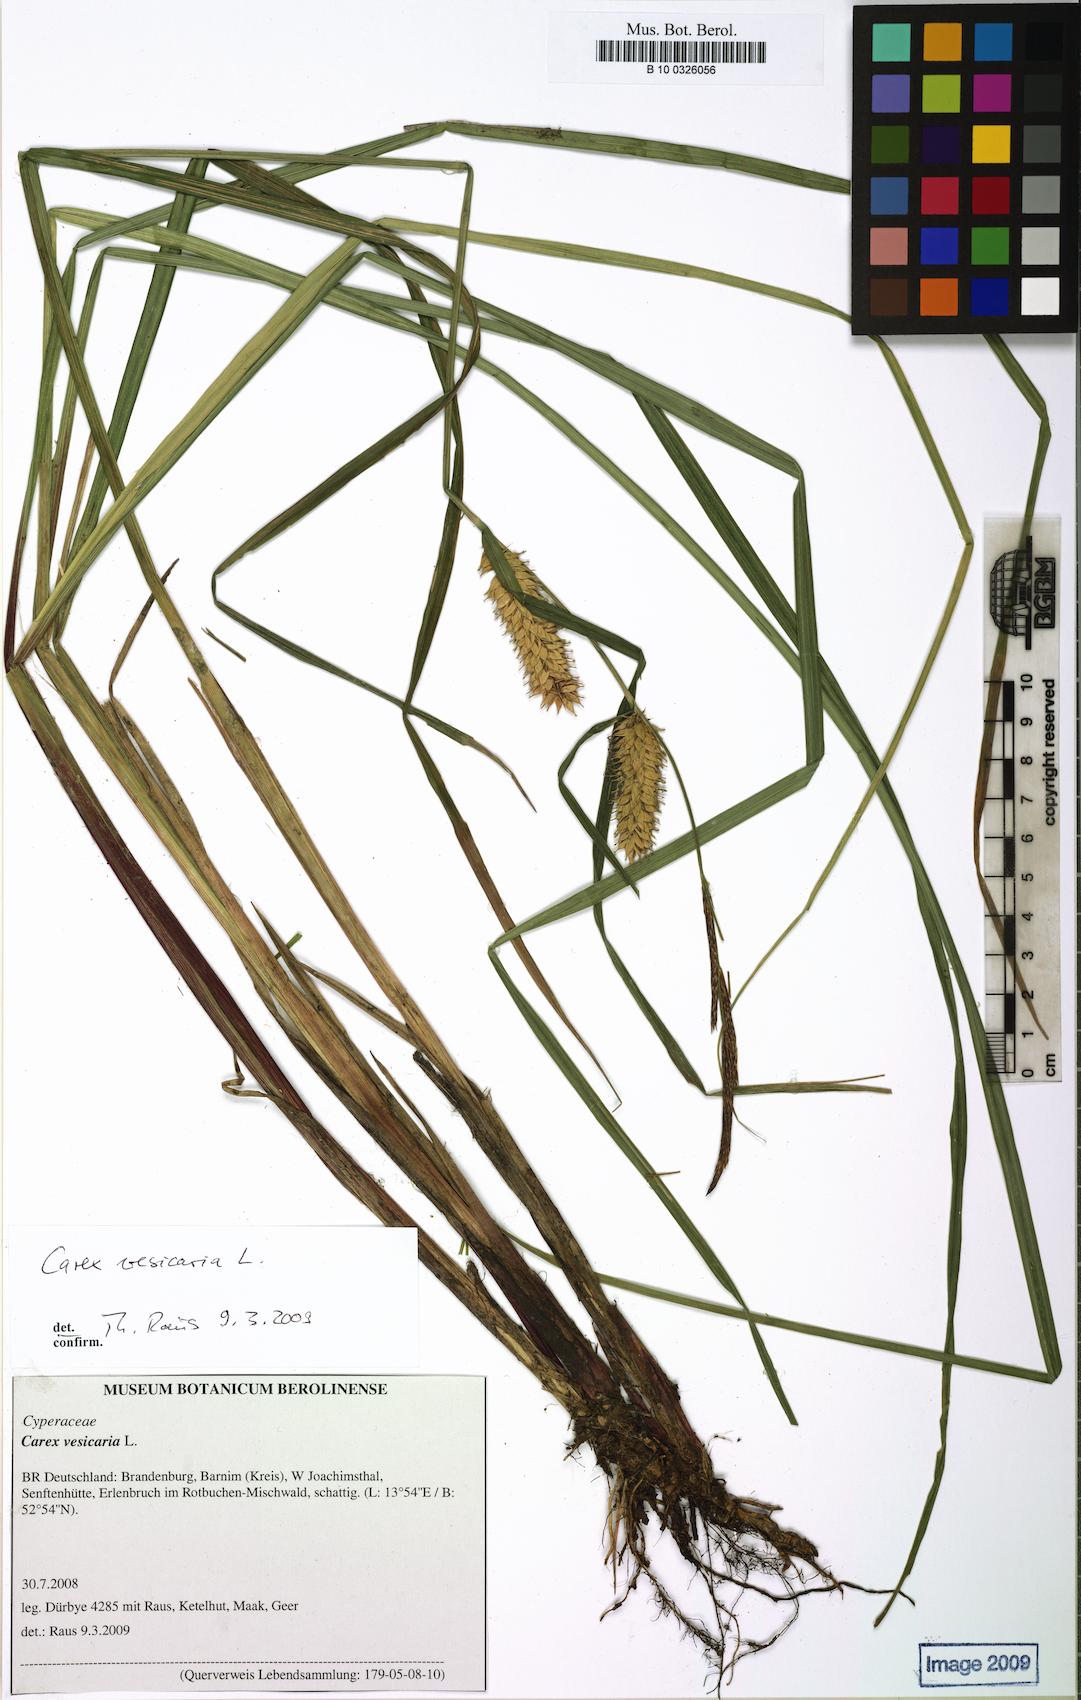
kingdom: Plantae
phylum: Tracheophyta
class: Liliopsida
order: Poales
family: Cyperaceae
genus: Carex
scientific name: Carex vesicaria
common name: Bladder-sedge
